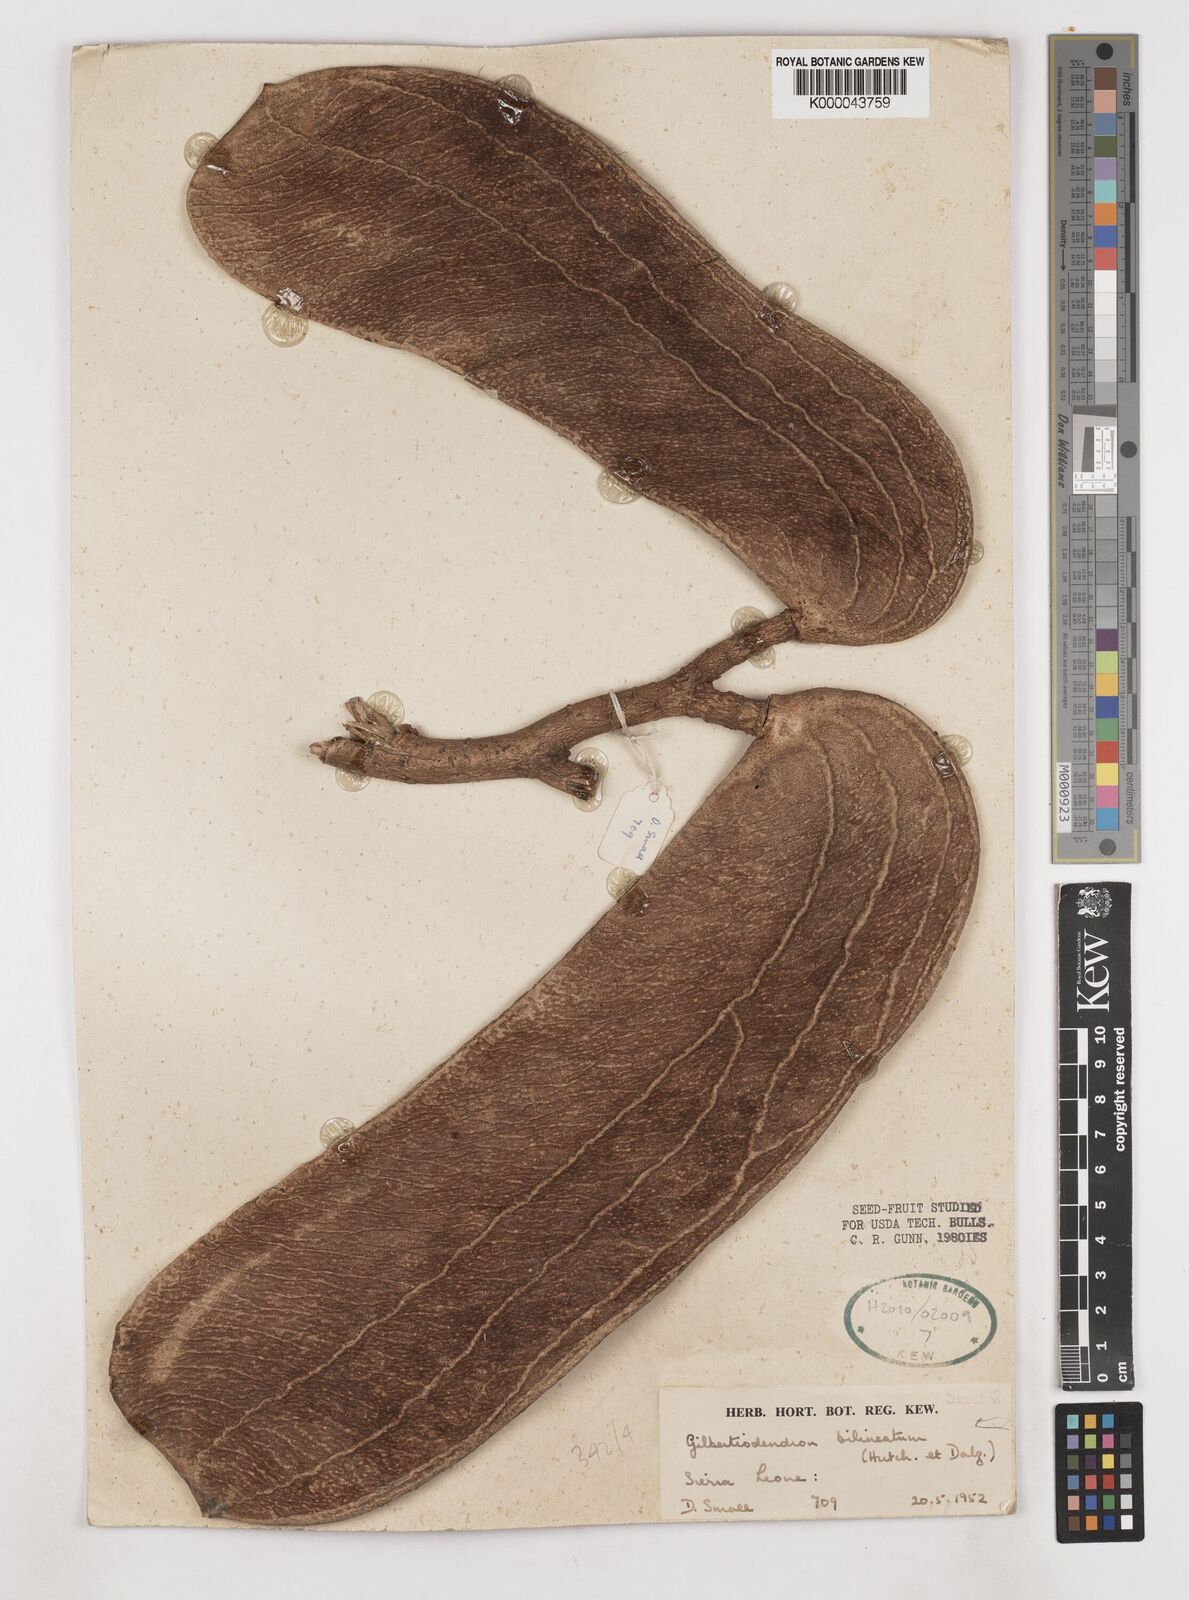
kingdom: Plantae
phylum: Tracheophyta
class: Magnoliopsida
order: Fabales
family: Fabaceae
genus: Gilbertiodendron
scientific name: Gilbertiodendron
